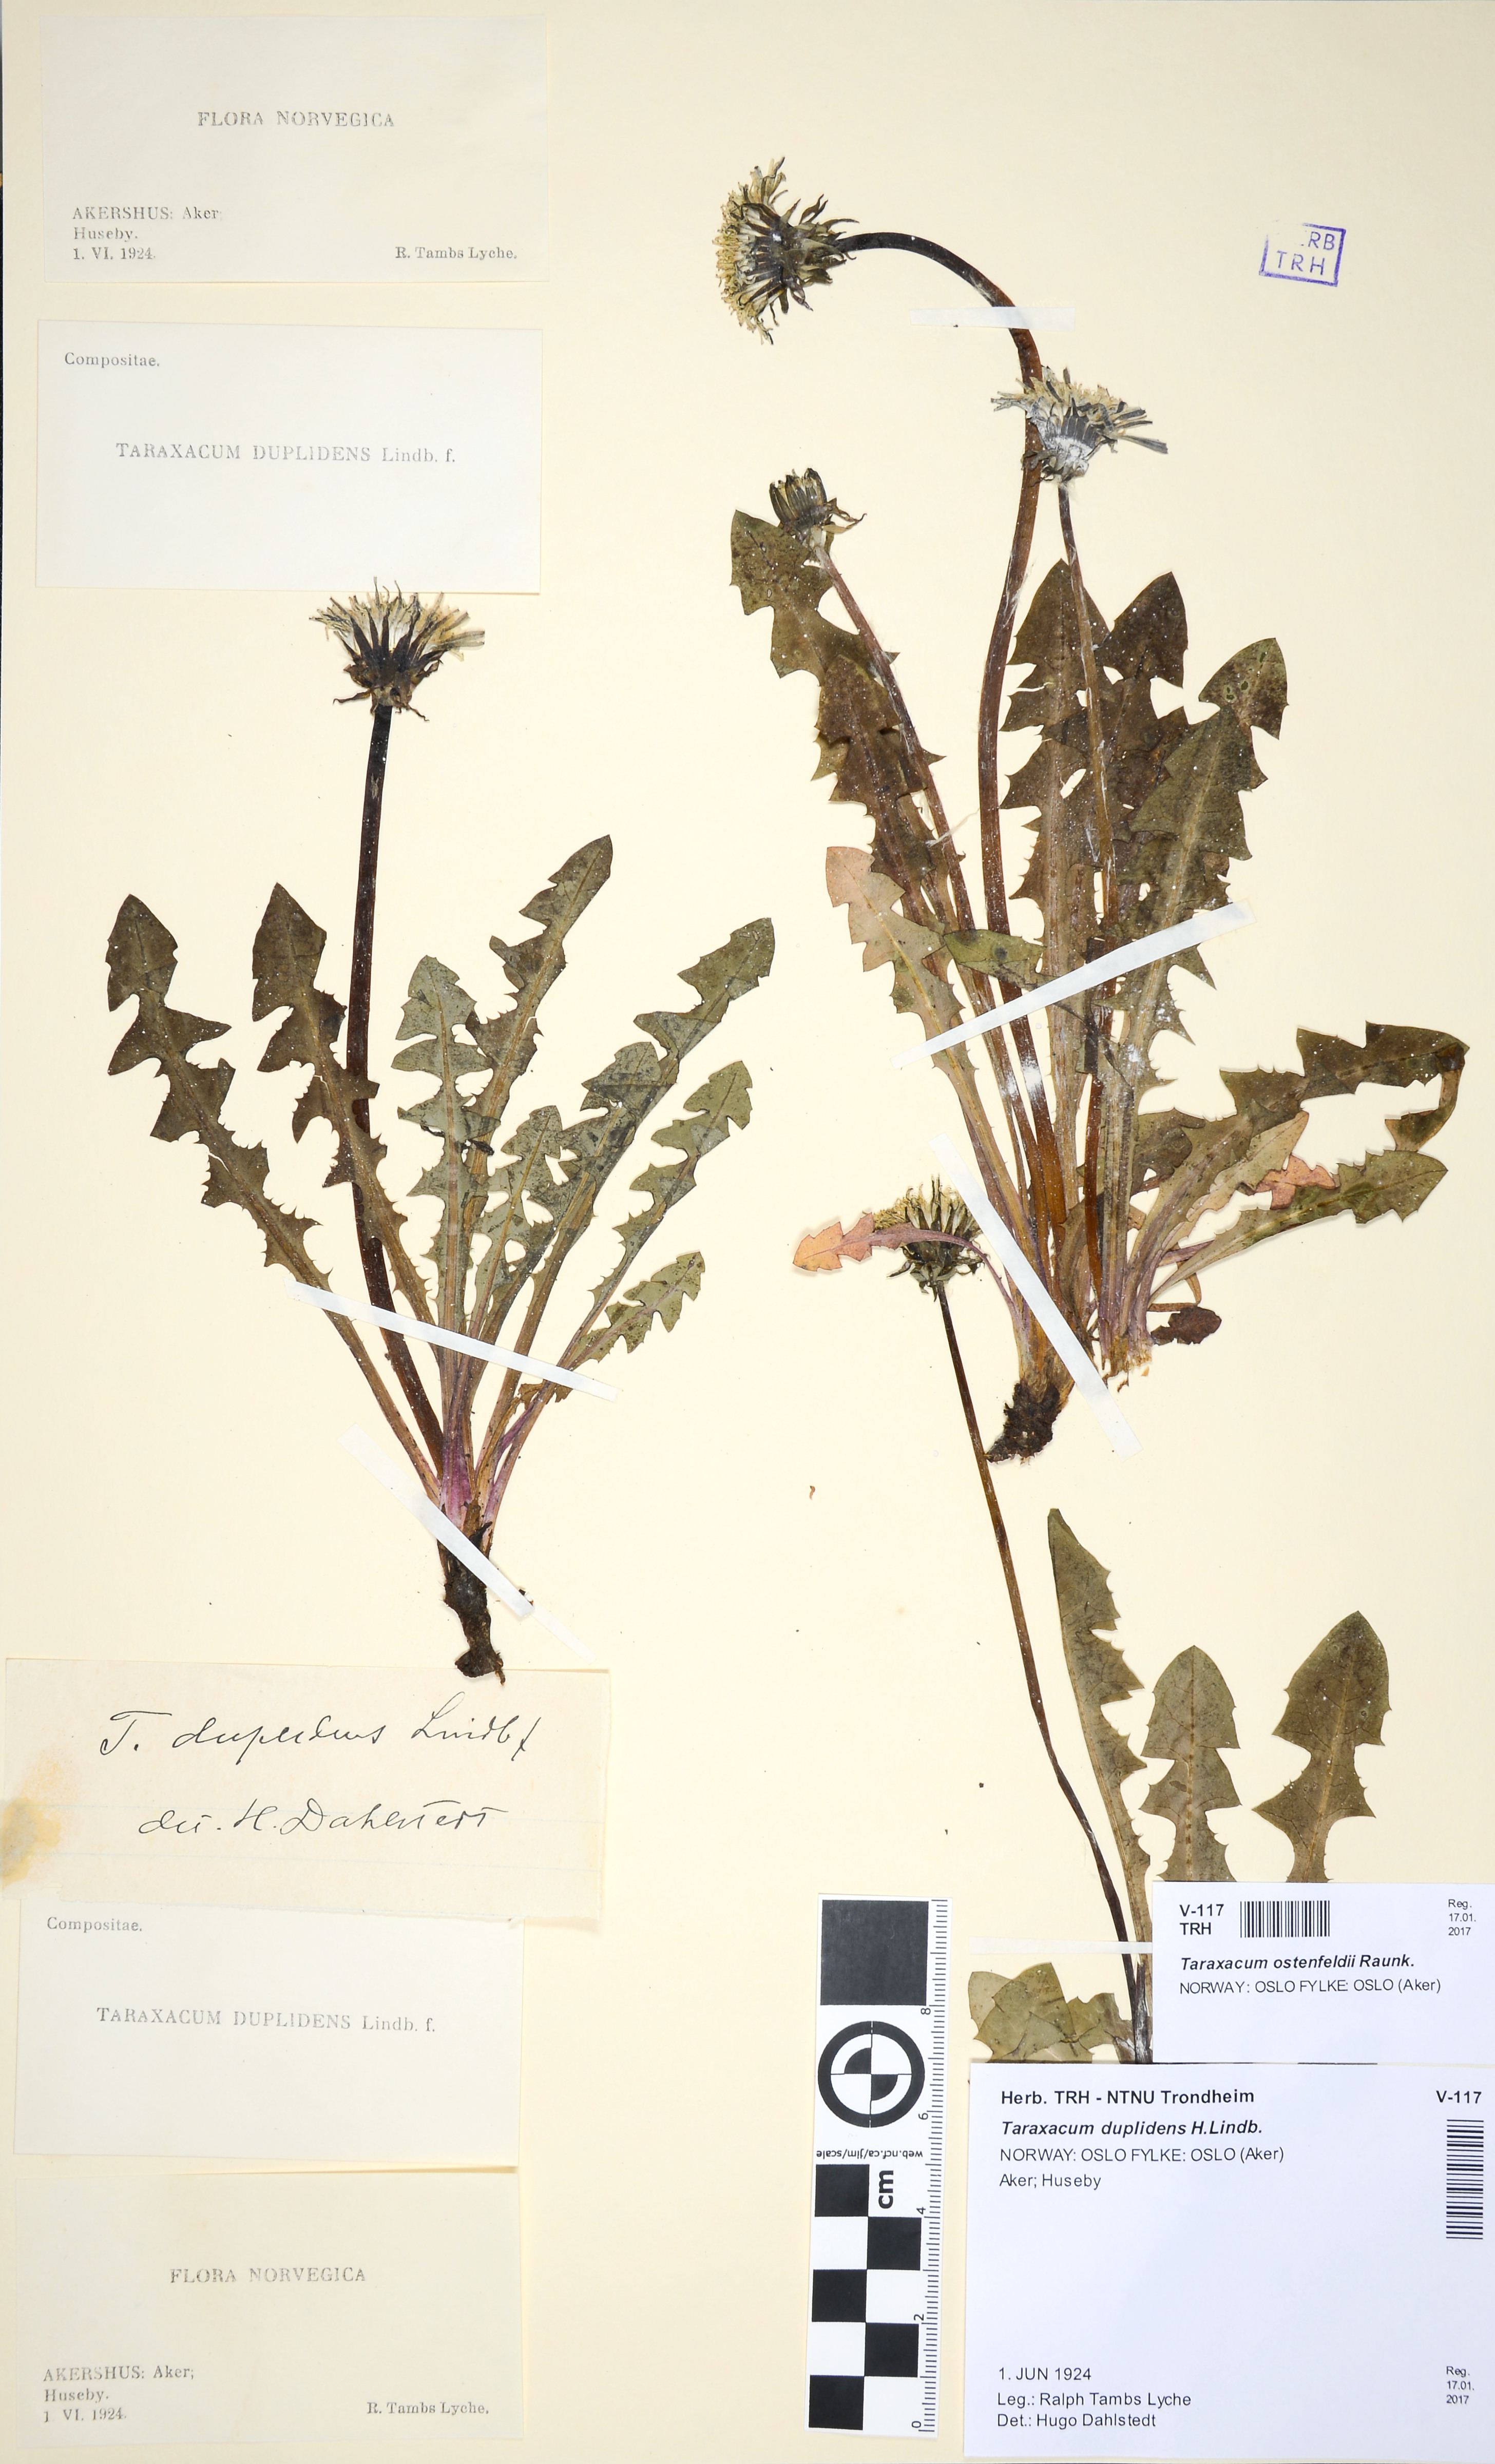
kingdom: Plantae
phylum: Tracheophyta
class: Magnoliopsida
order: Asterales
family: Asteraceae
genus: Taraxacum
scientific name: Taraxacum ostenfeldii
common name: Ostenfeld's dandelion
